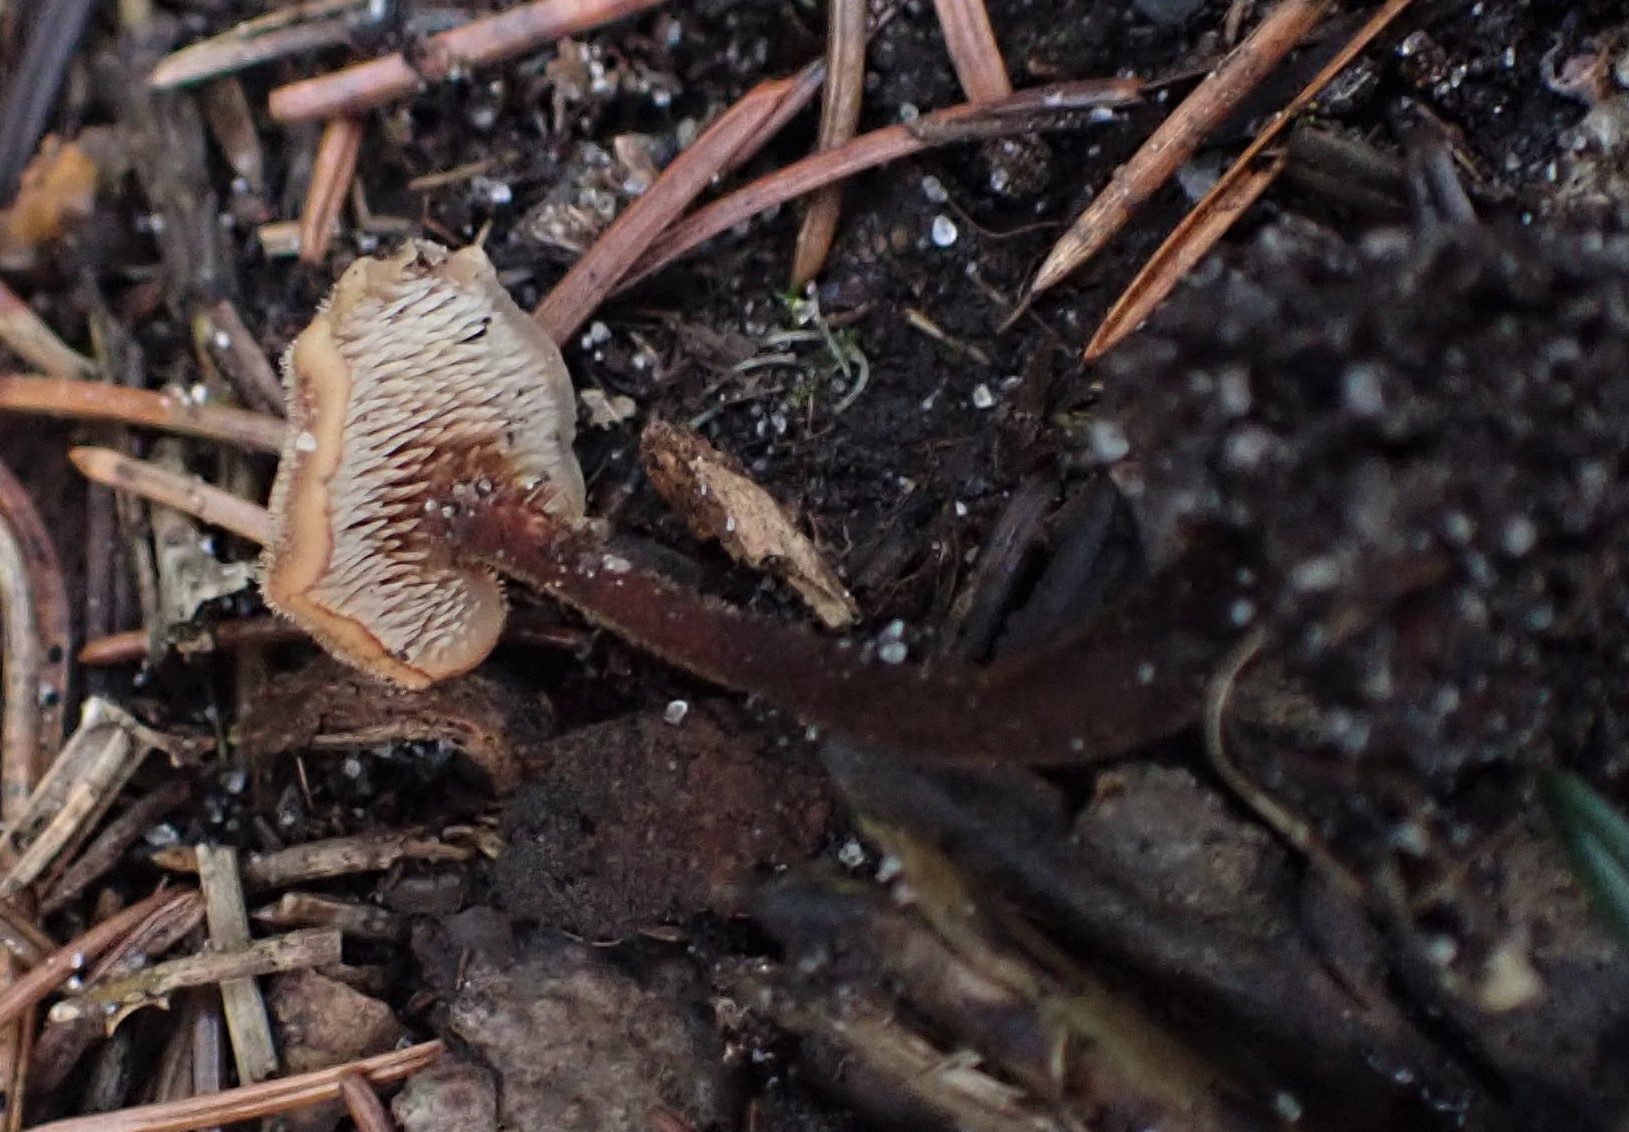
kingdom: Fungi
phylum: Basidiomycota
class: Agaricomycetes
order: Russulales
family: Auriscalpiaceae
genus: Auriscalpium
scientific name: Auriscalpium vulgare
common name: koglepigsvamp
